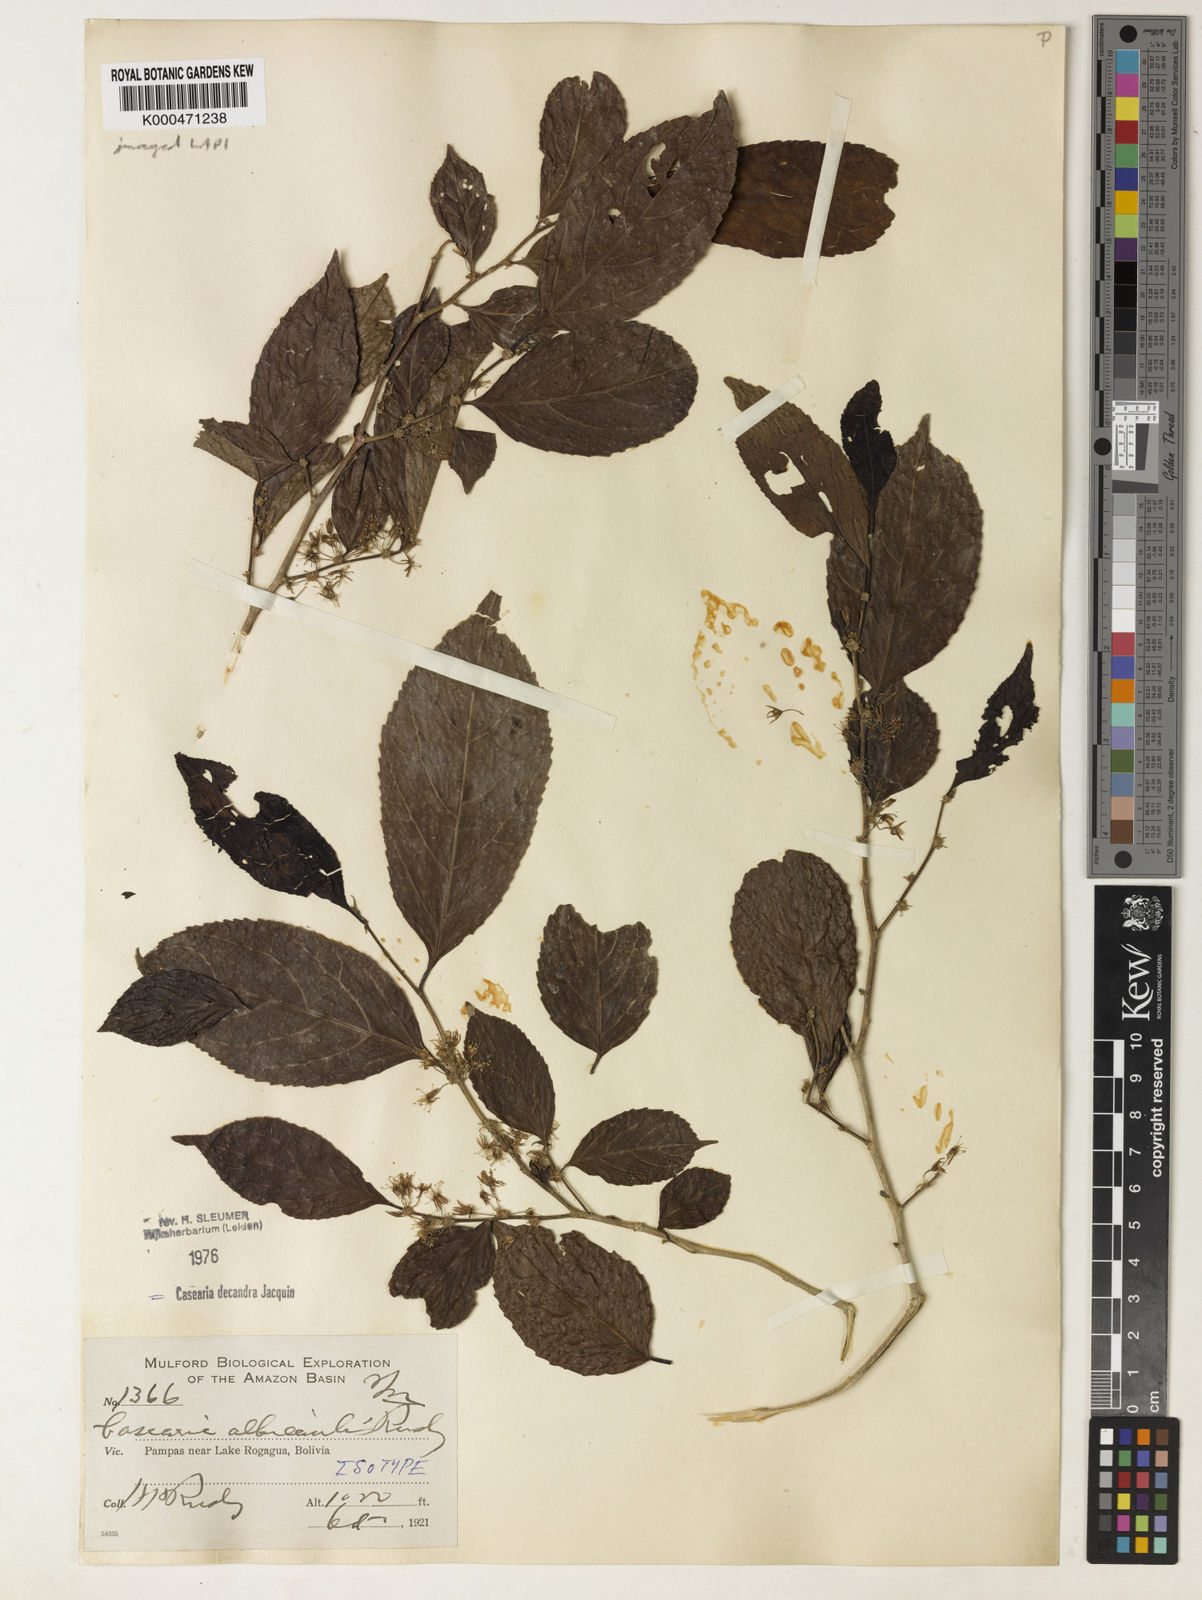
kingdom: Plantae
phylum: Tracheophyta
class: Magnoliopsida
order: Malpighiales
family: Salicaceae
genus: Casearia
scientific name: Casearia decandra
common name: Crack open
